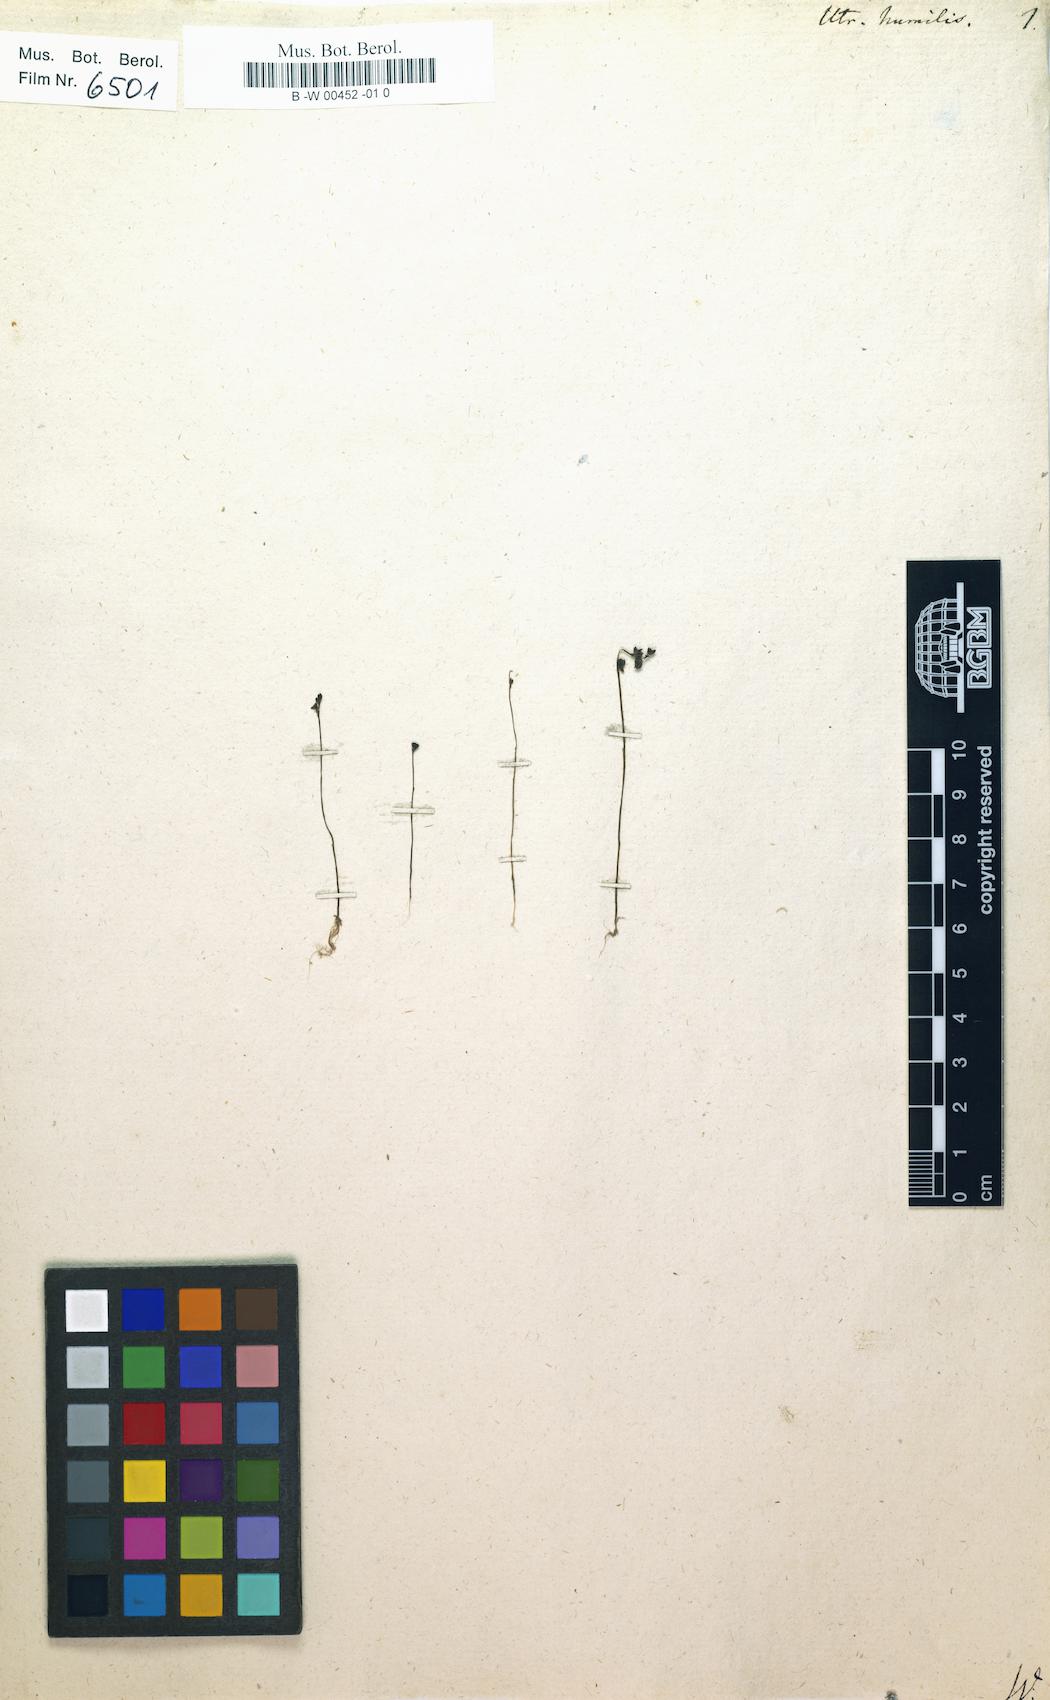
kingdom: Plantae
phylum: Tracheophyta
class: Magnoliopsida
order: Lamiales
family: Lentibulariaceae
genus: Utricularia
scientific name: Utricularia bifida
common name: Bifid bladderwort
